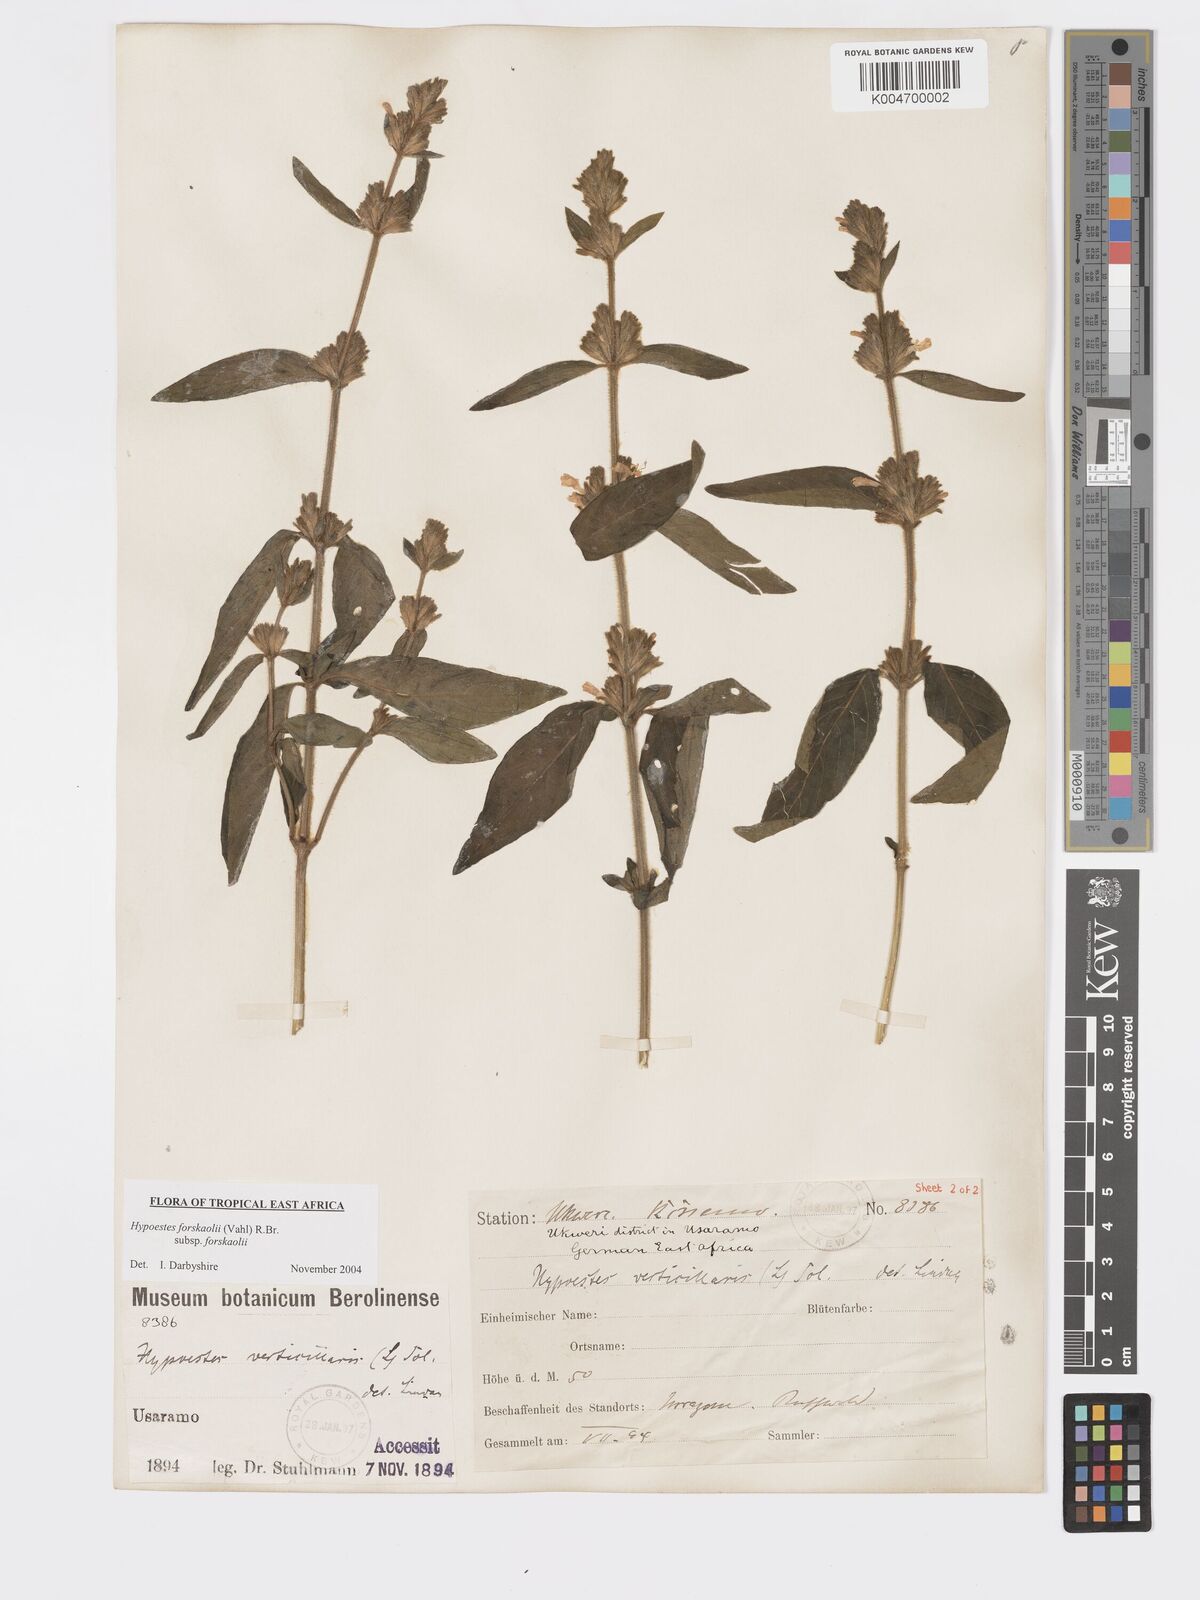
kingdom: Plantae
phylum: Tracheophyta
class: Magnoliopsida
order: Lamiales
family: Acanthaceae
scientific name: Acanthaceae
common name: Acanthaceae
